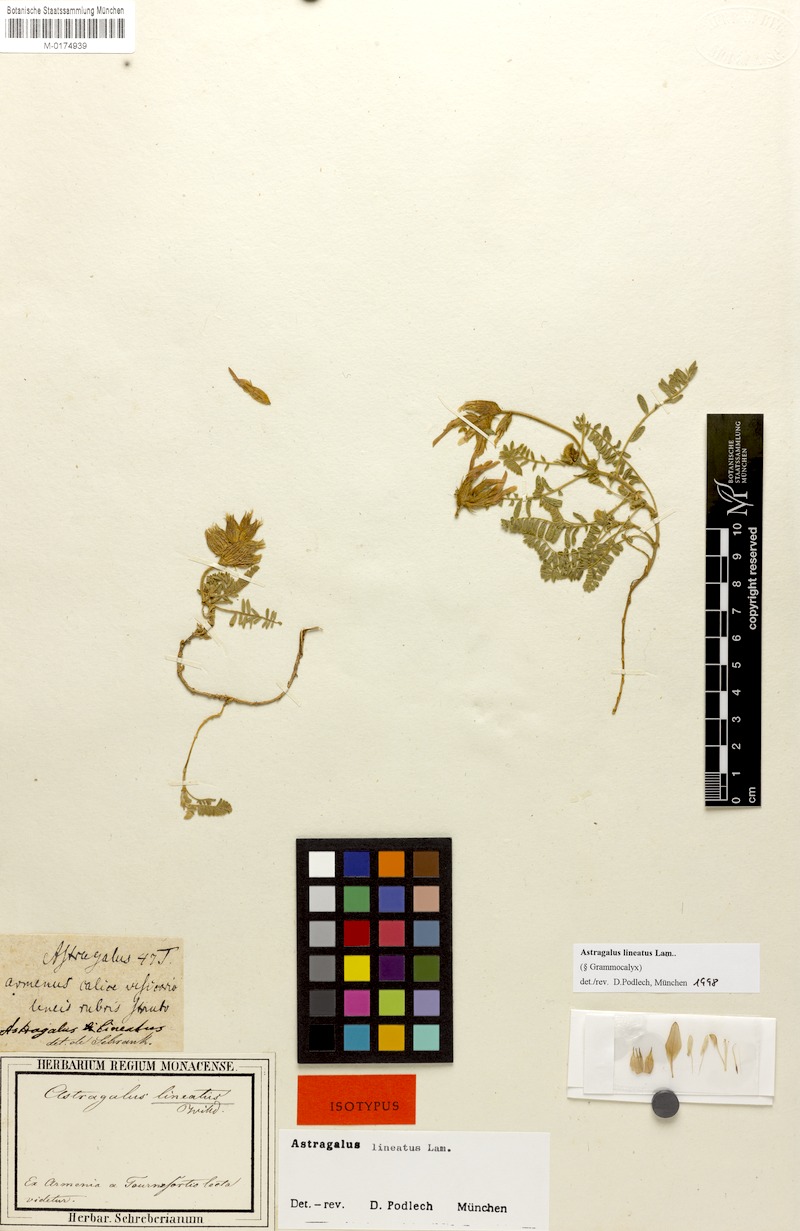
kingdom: Plantae
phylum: Tracheophyta
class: Magnoliopsida
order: Fabales
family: Fabaceae
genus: Astragalus
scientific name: Astragalus lineatus
